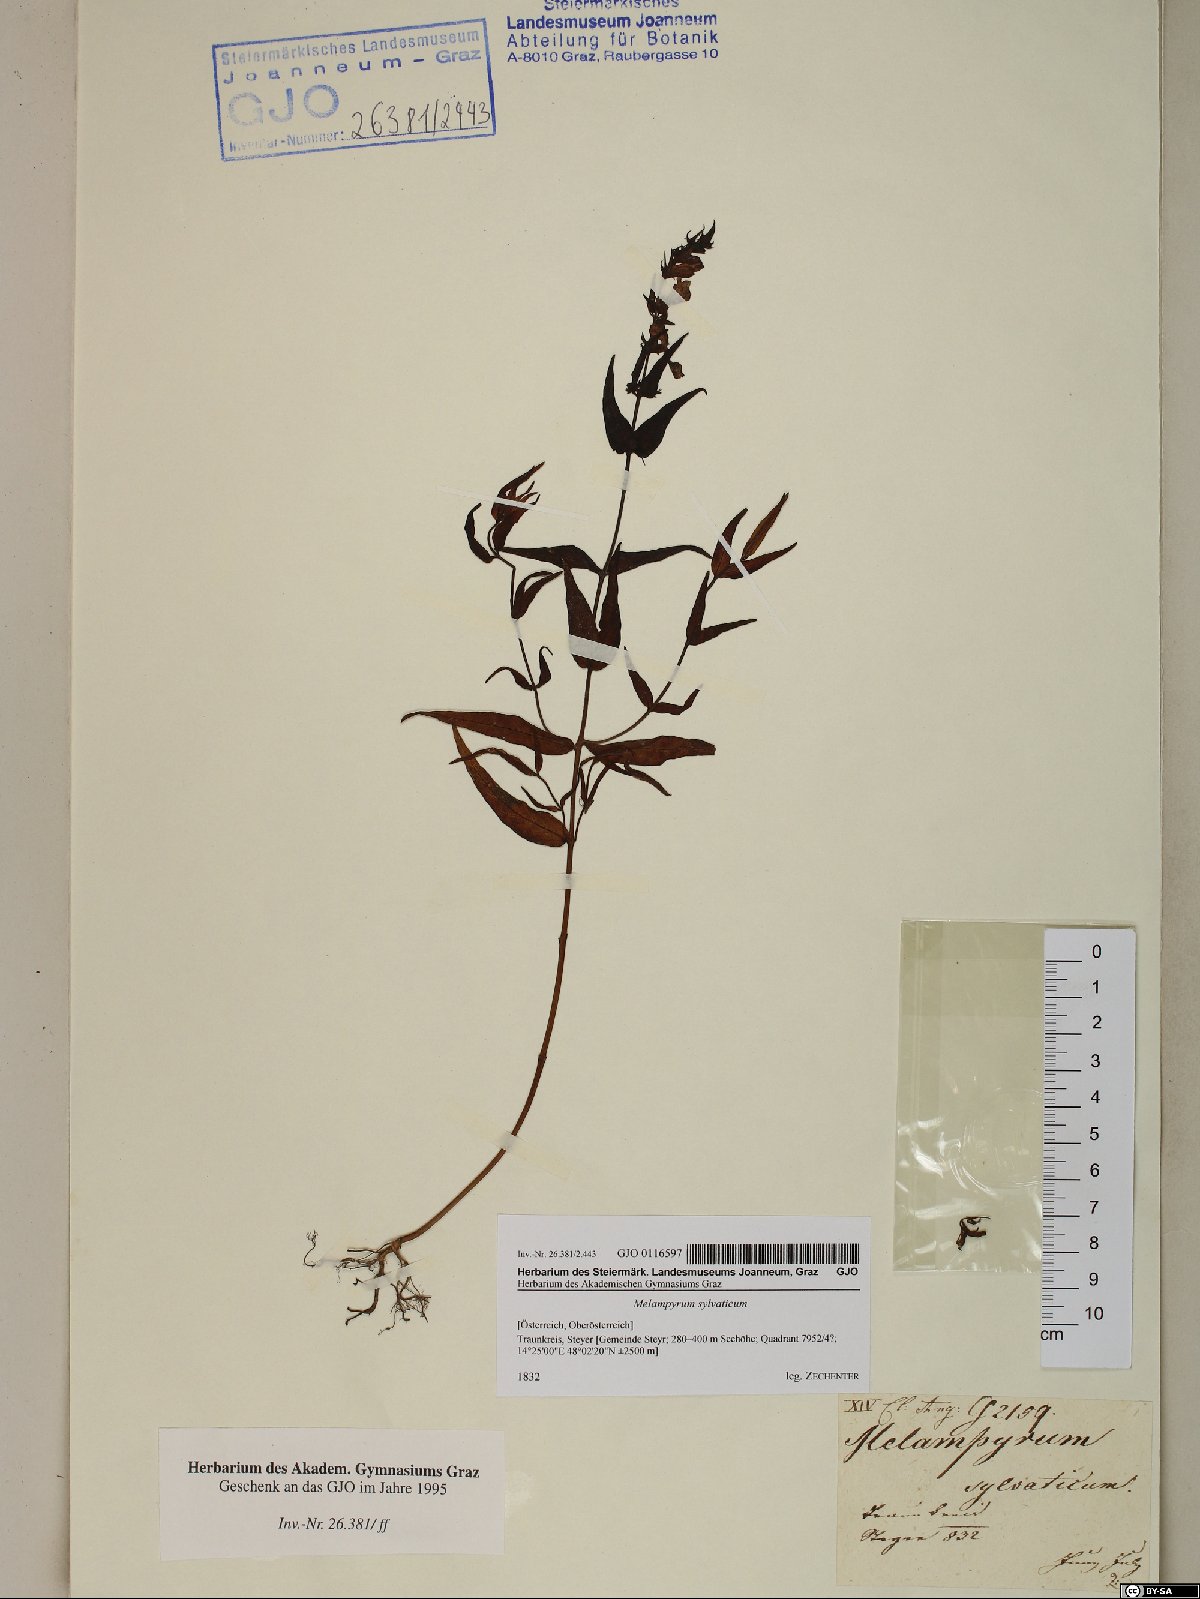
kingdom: Plantae
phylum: Tracheophyta
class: Magnoliopsida
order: Lamiales
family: Orobanchaceae
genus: Melampyrum
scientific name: Melampyrum sylvaticum
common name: Small cow-wheat
